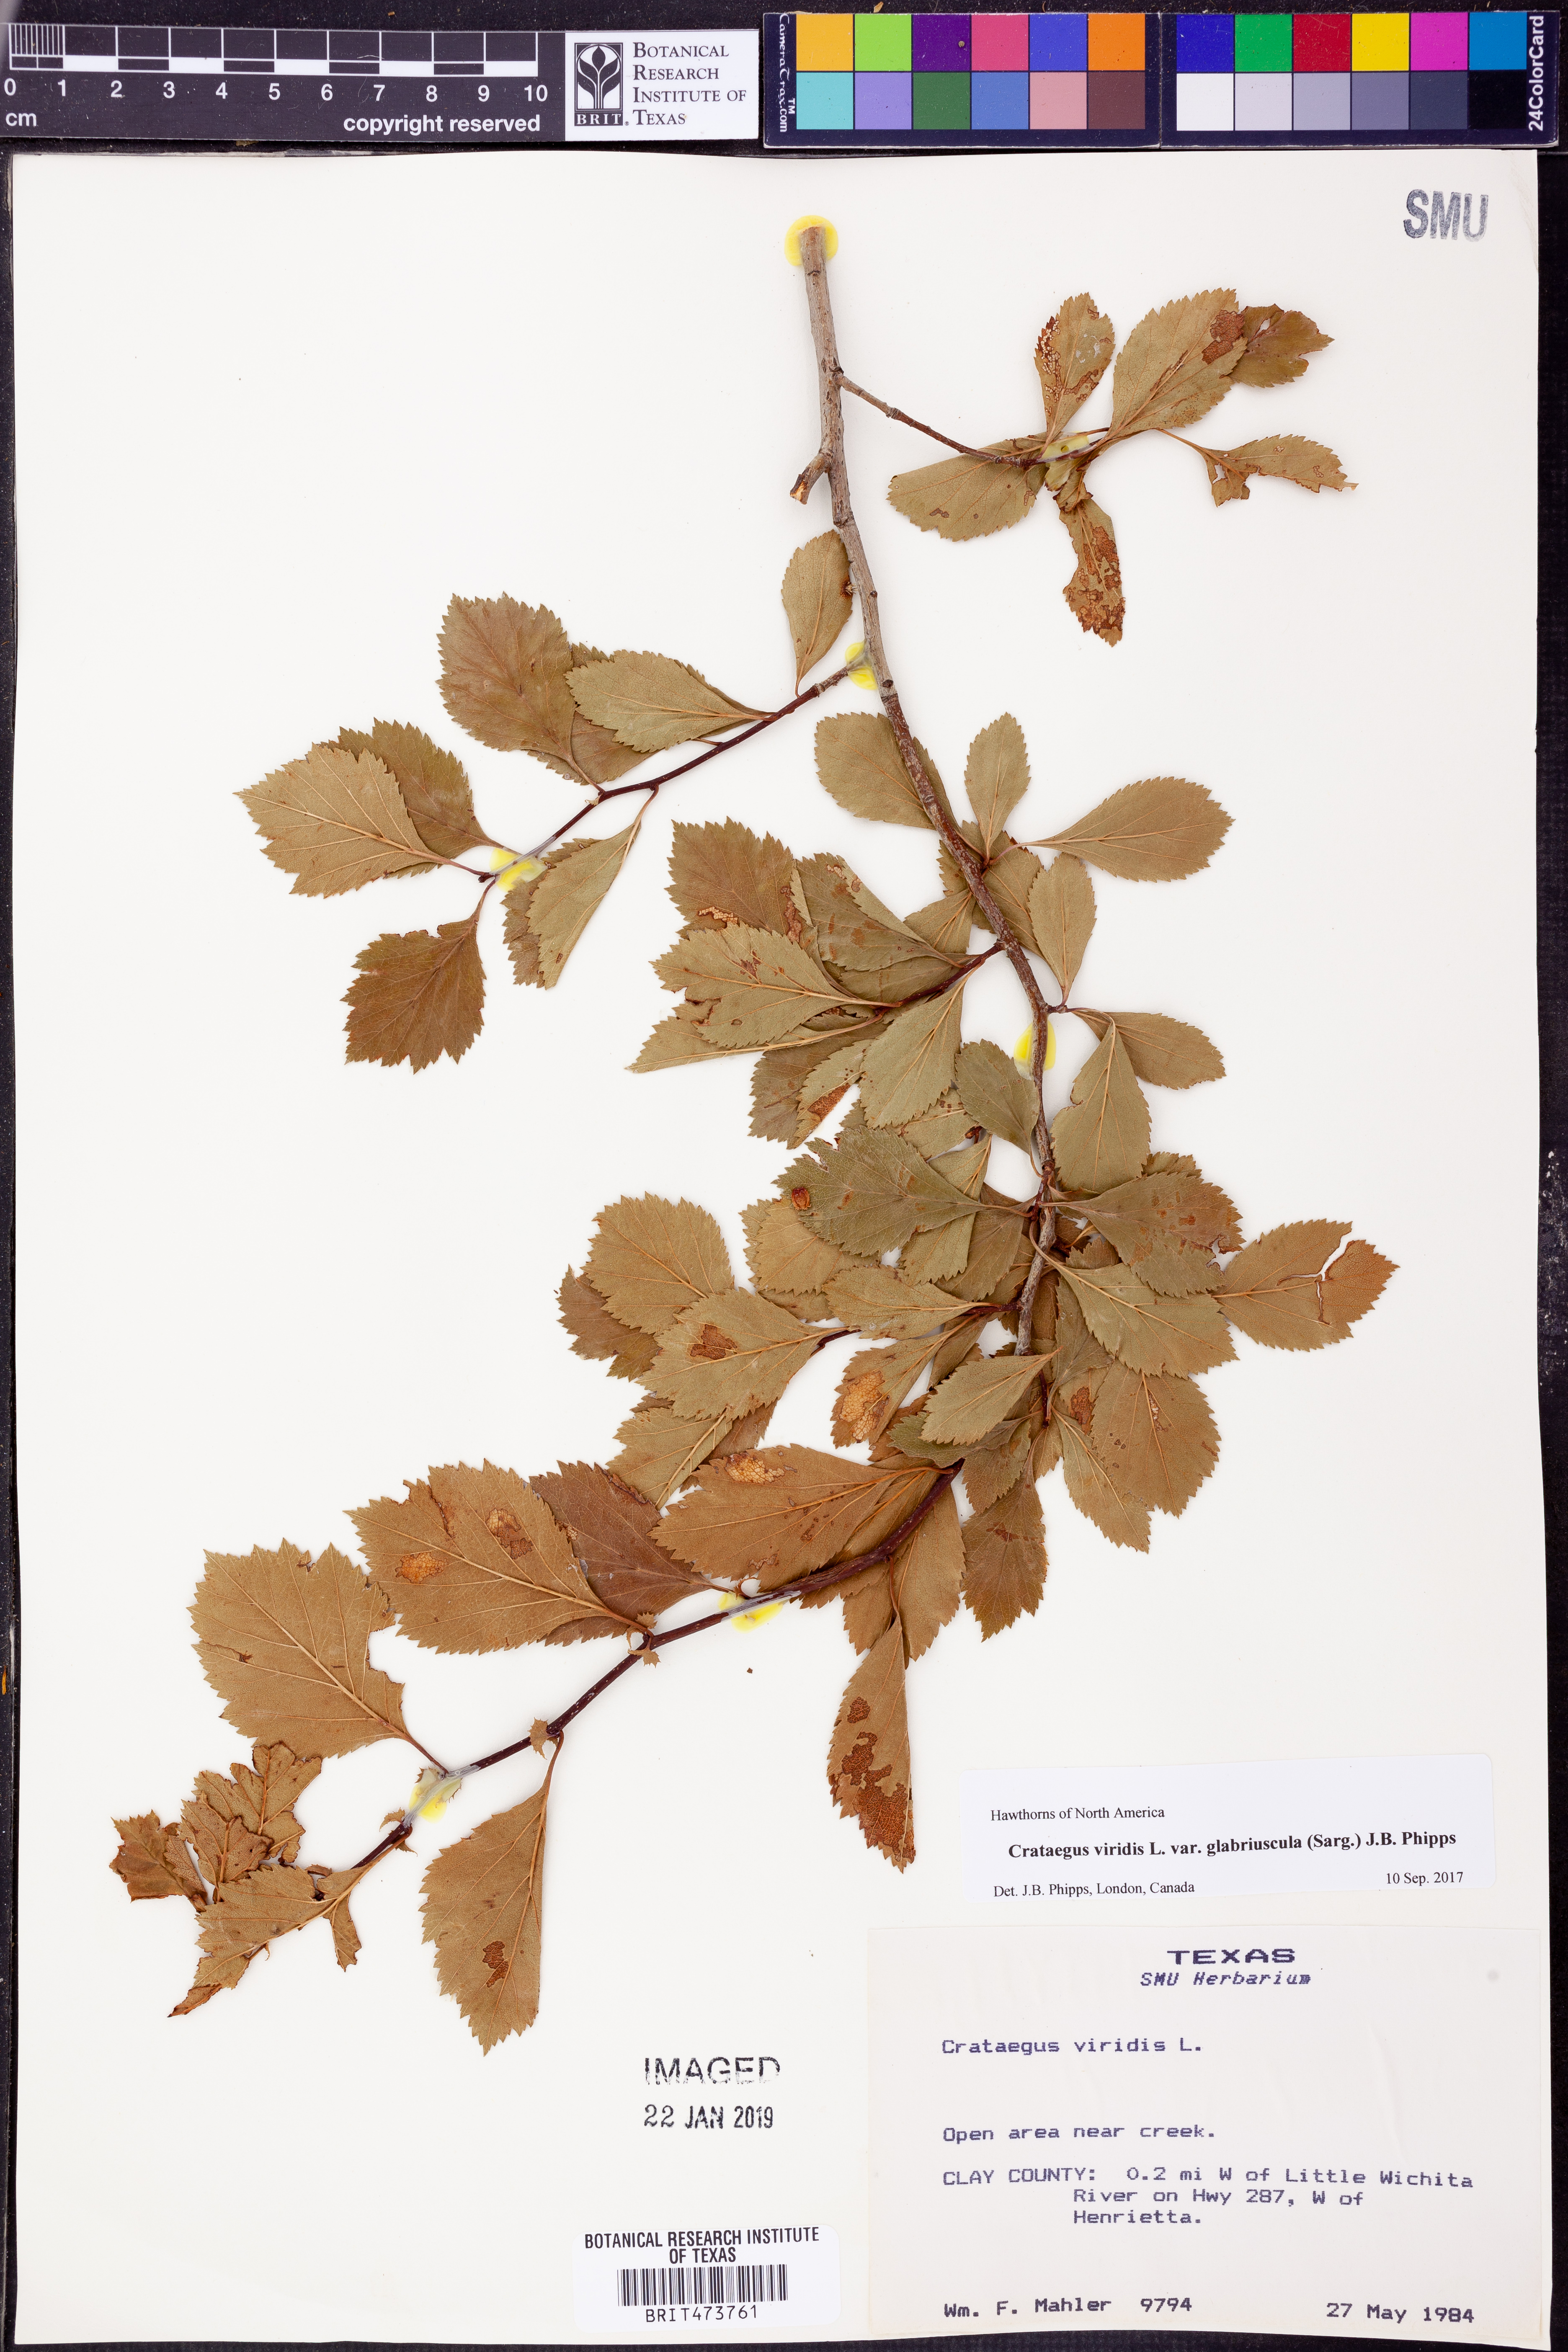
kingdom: Plantae
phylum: Tracheophyta
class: Magnoliopsida
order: Rosales
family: Rosaceae
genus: Crataegus
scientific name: Crataegus viridis
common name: Southernthorn
